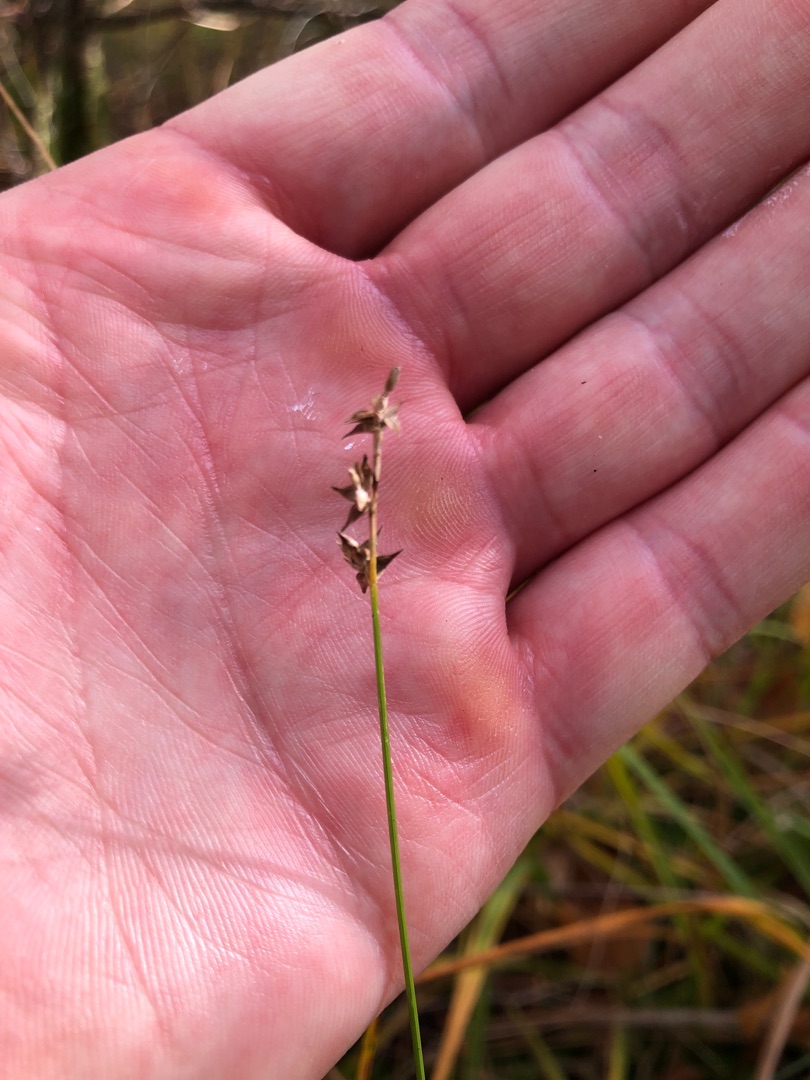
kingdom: Plantae
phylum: Tracheophyta
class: Liliopsida
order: Poales
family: Cyperaceae
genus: Carex
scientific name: Carex echinata
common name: Stjerne-star
